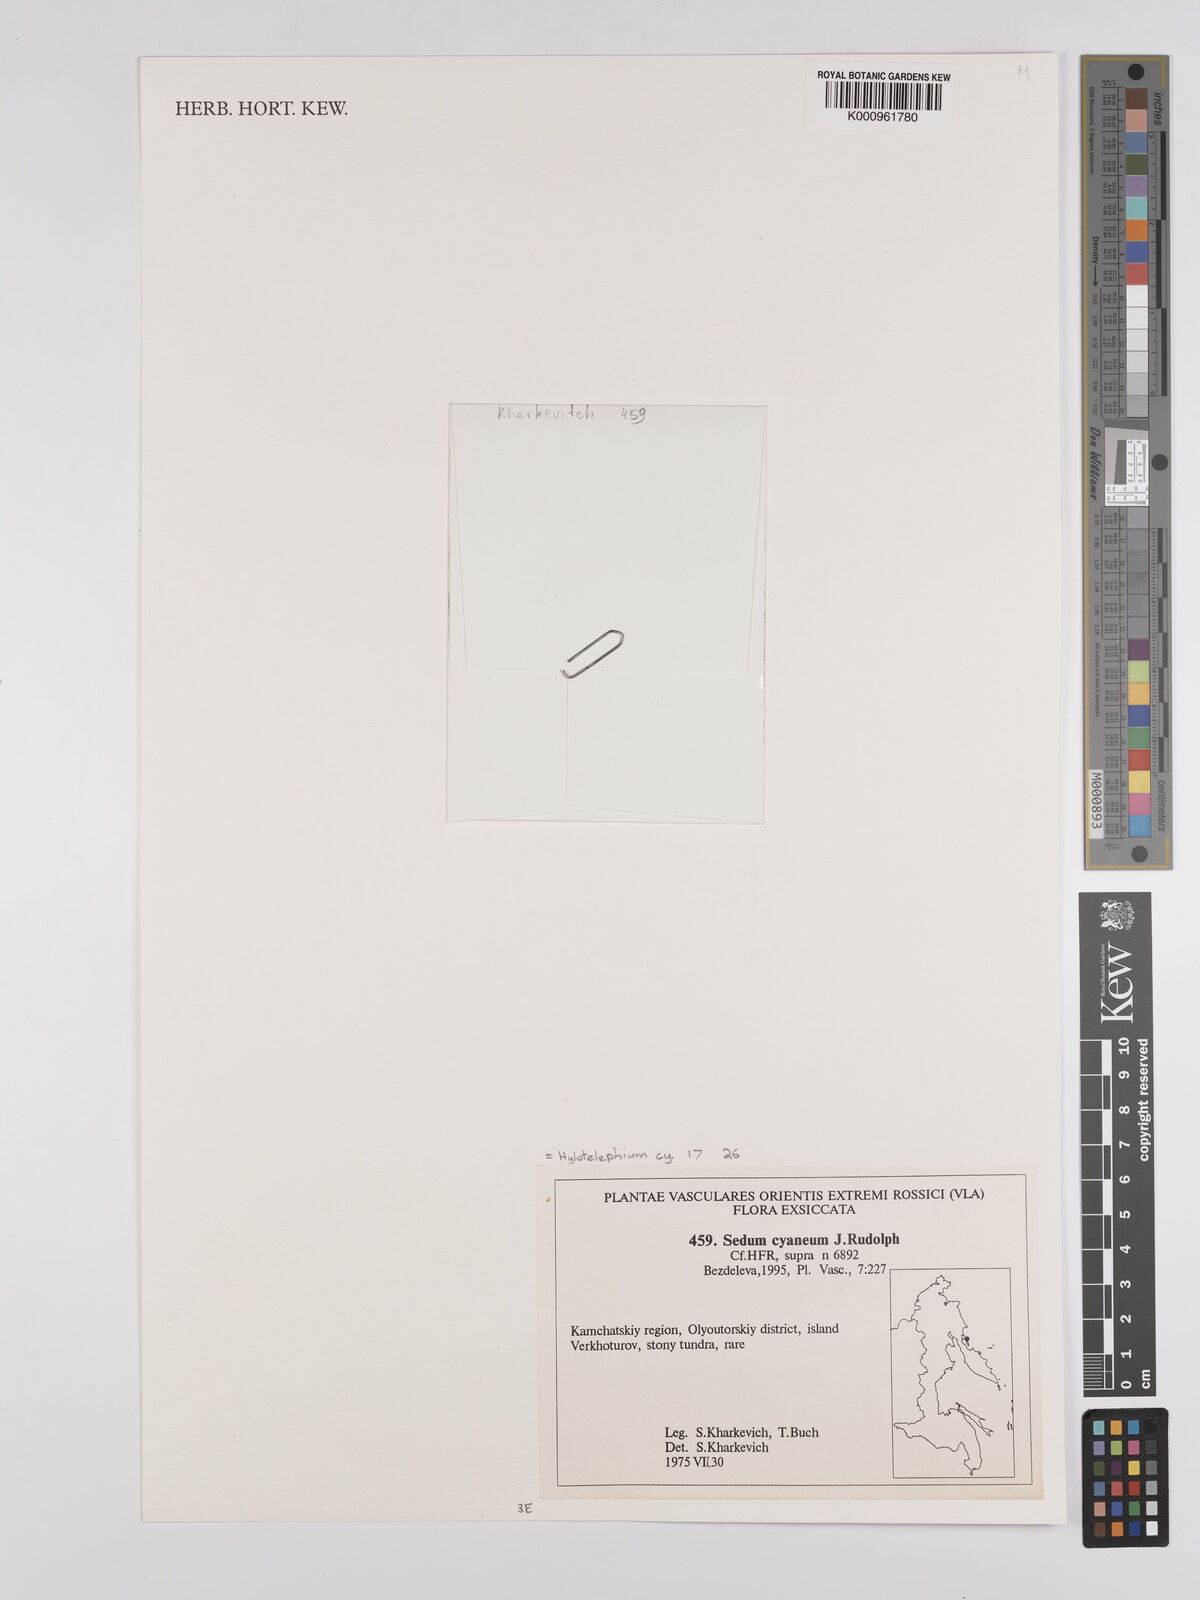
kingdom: Plantae
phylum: Tracheophyta
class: Magnoliopsida
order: Saxifragales
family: Crassulaceae
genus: Hylotelephium
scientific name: Hylotelephium cyaneum
